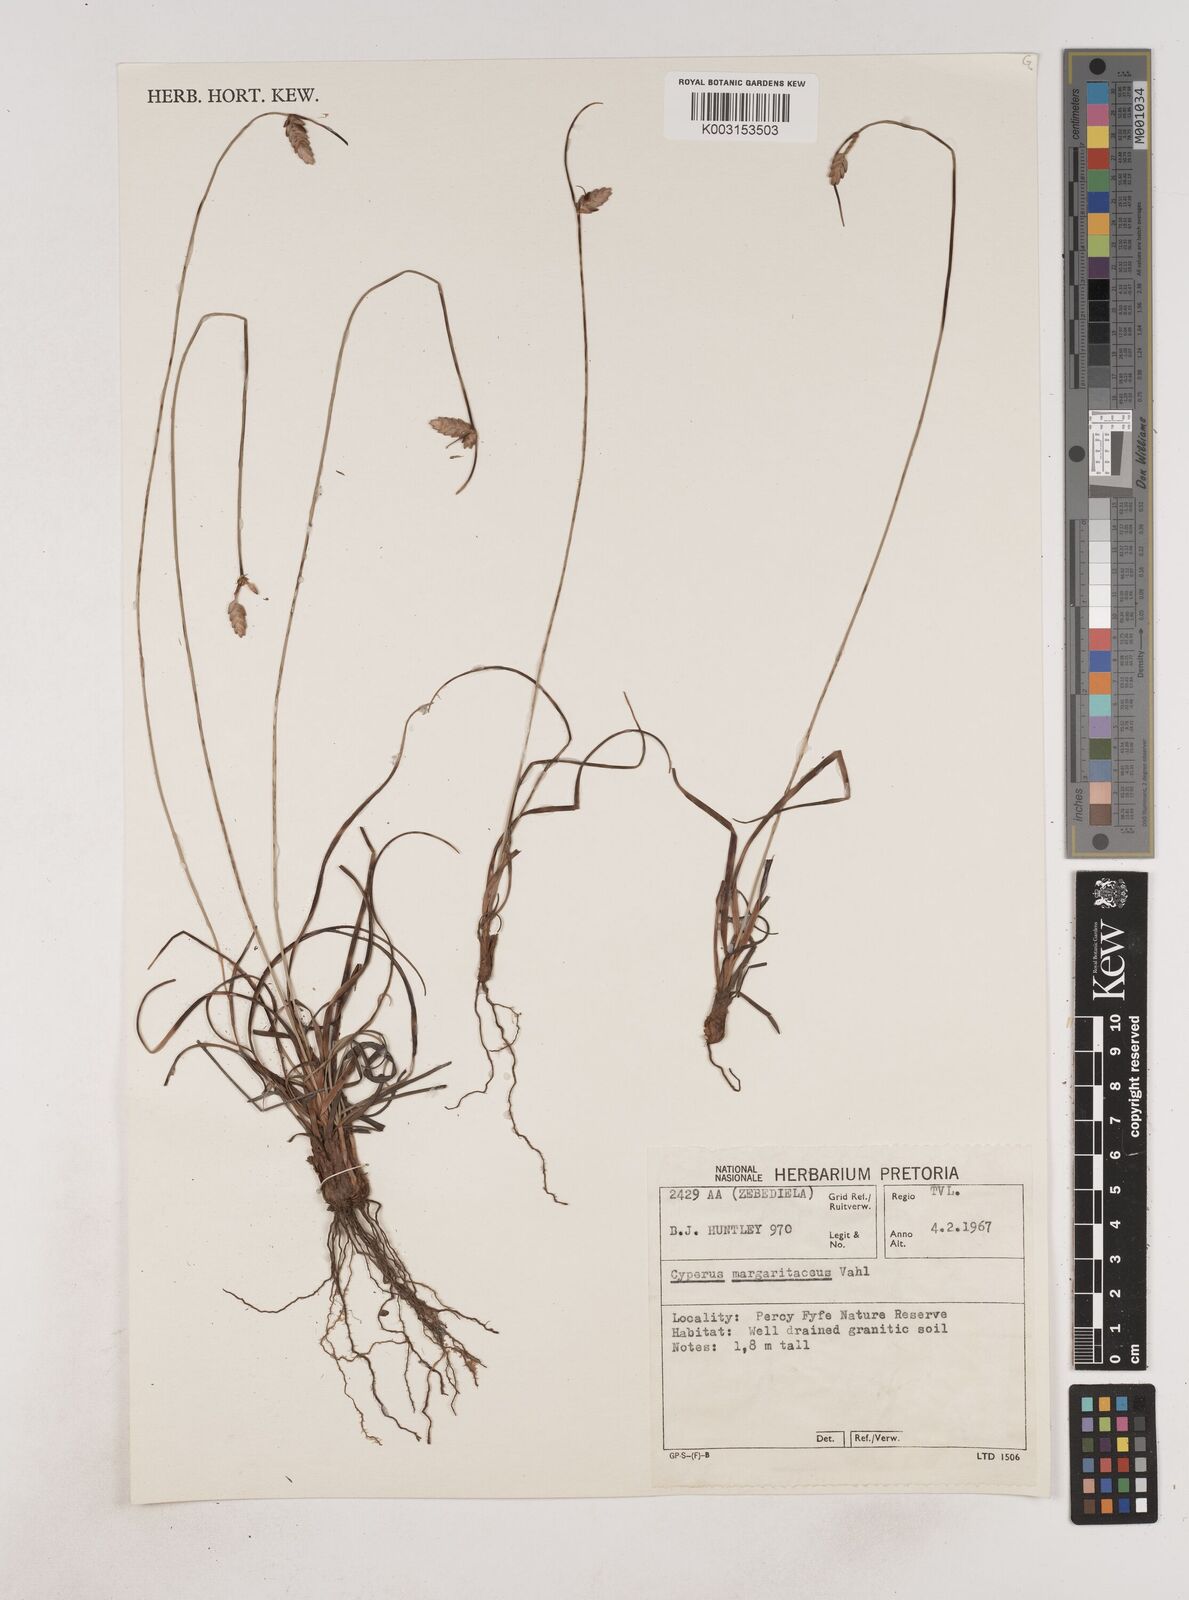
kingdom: Plantae
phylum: Tracheophyta
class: Liliopsida
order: Poales
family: Cyperaceae
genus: Cyperus
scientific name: Cyperus margaritaceus
